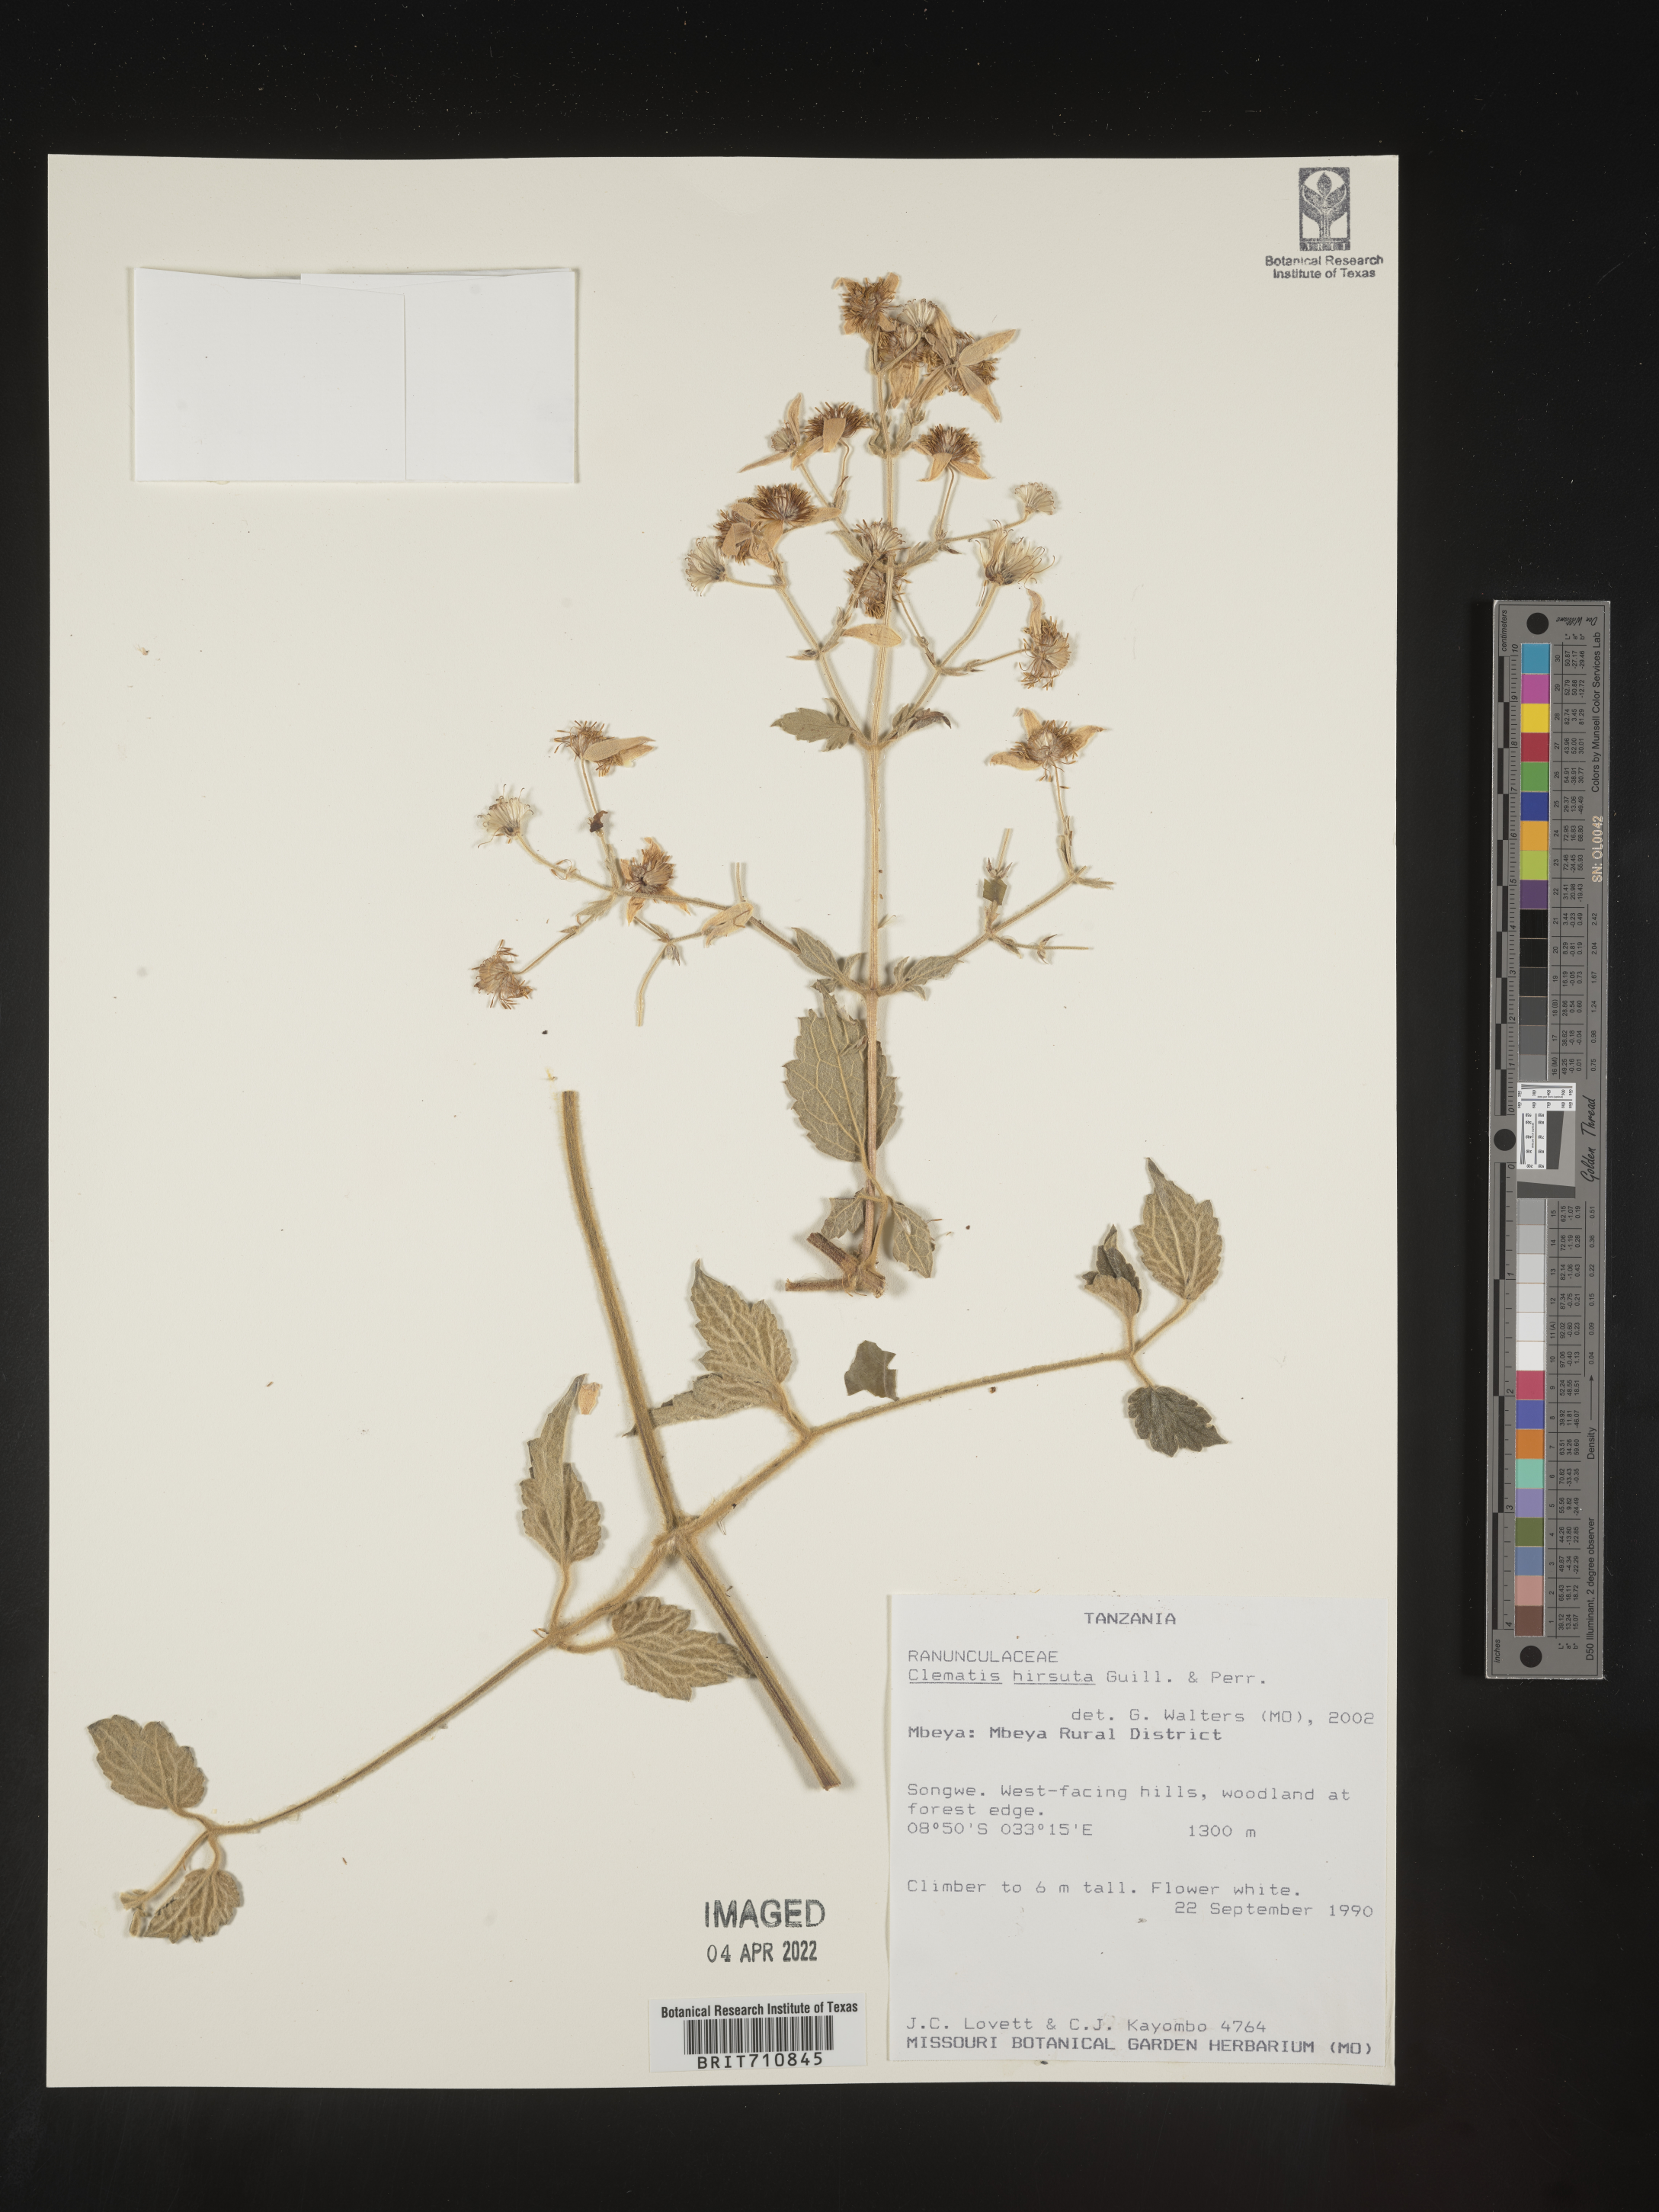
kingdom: Plantae
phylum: Tracheophyta
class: Magnoliopsida
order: Ranunculales
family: Ranunculaceae
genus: Clematis
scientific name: Clematis
